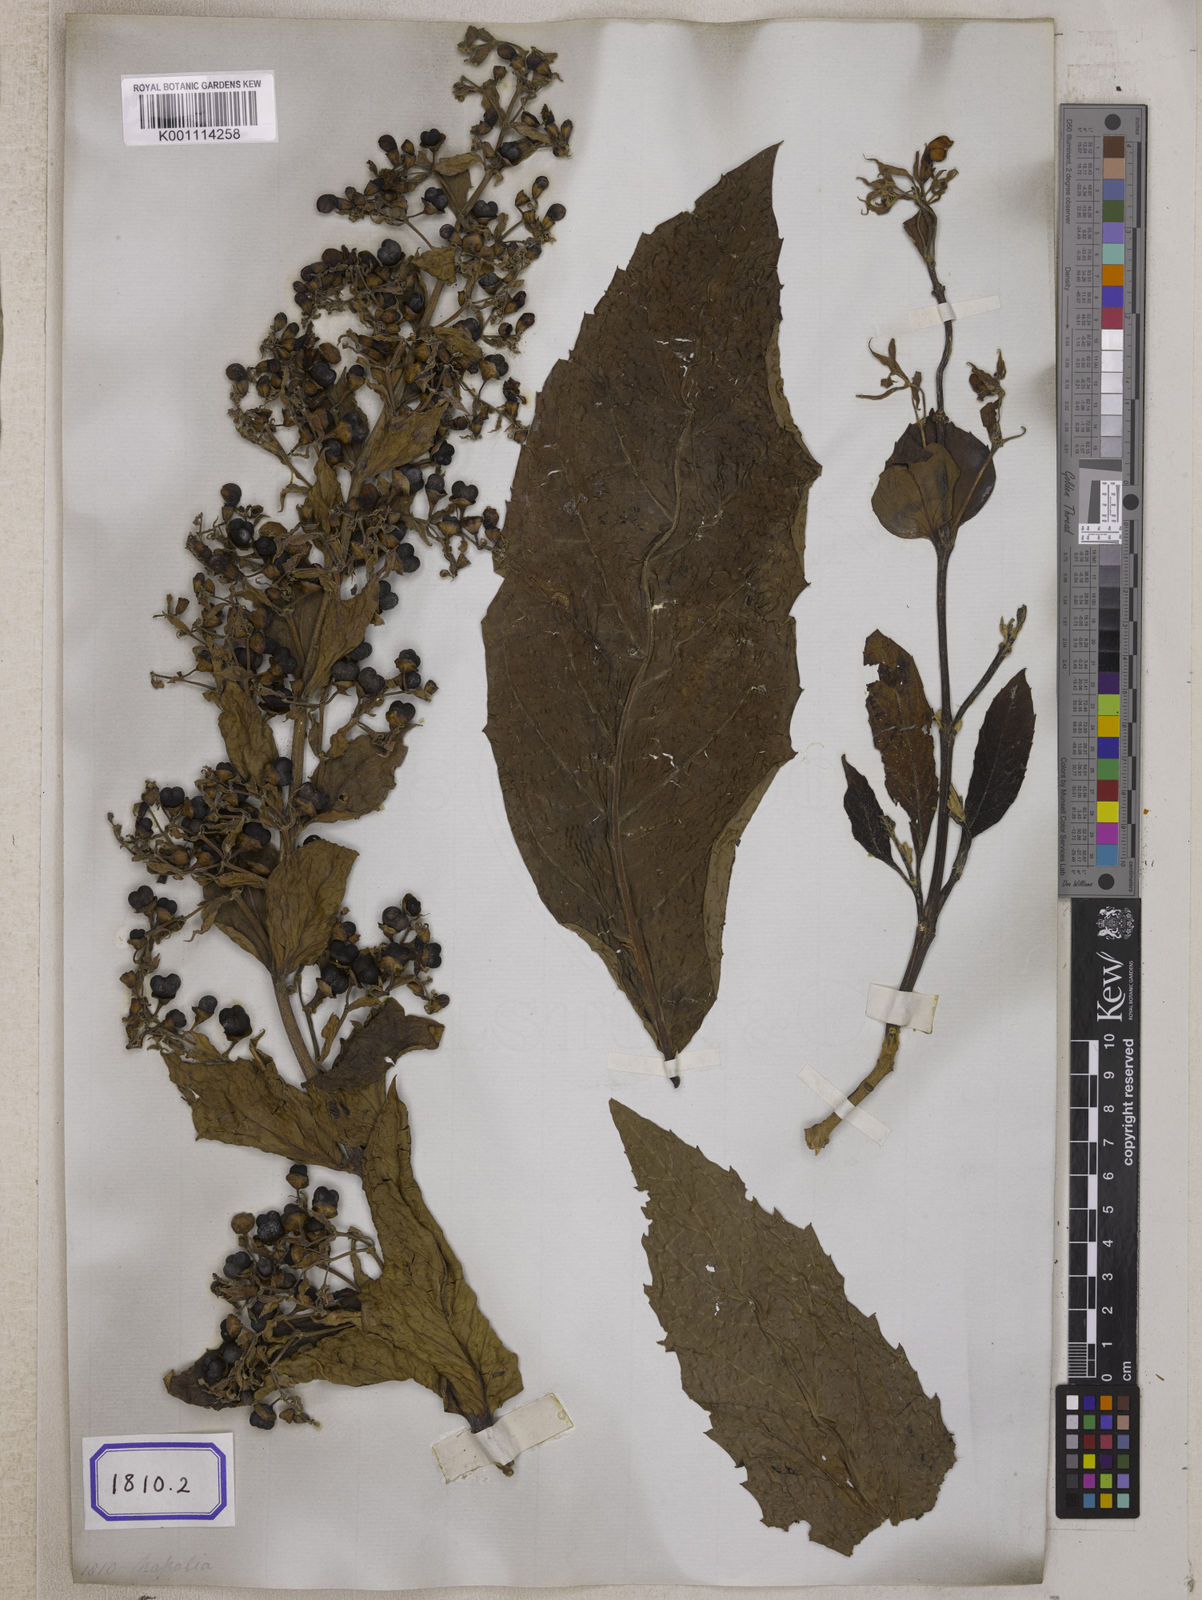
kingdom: Plantae
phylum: Tracheophyta
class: Magnoliopsida
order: Lamiales
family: Lamiaceae
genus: Clerodendrum
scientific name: Clerodendrum
